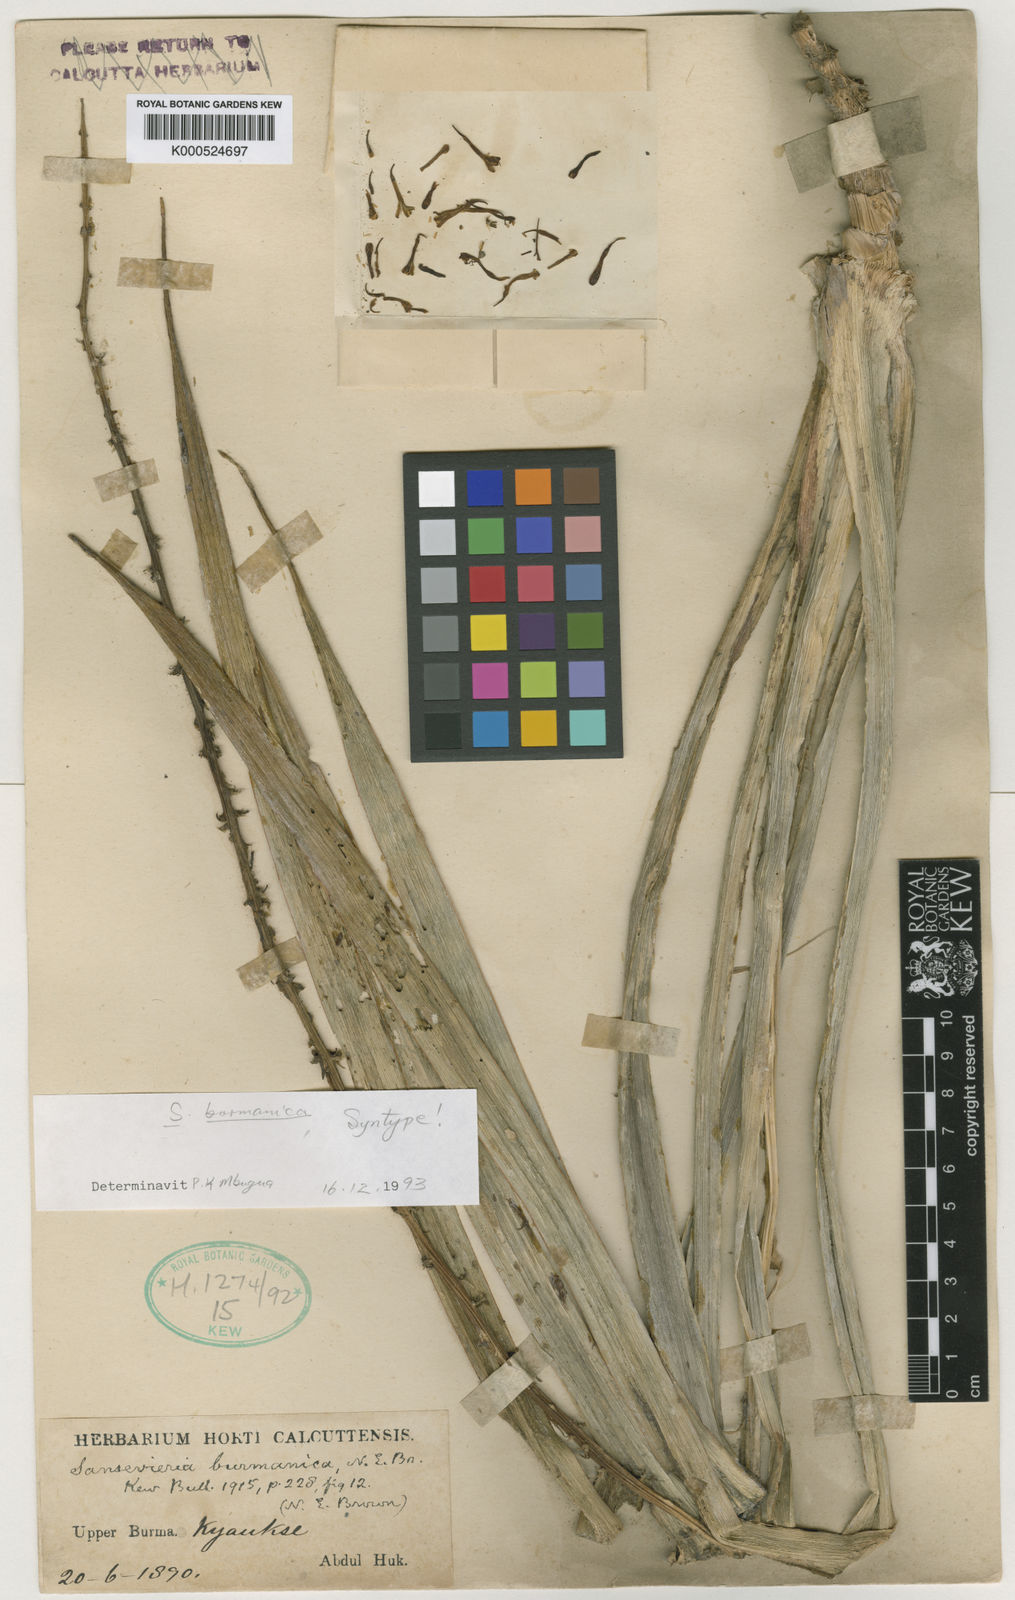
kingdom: Plantae
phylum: Tracheophyta
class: Liliopsida
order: Asparagales
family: Asparagaceae
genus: Dracaena
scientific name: Dracaena burmanica
